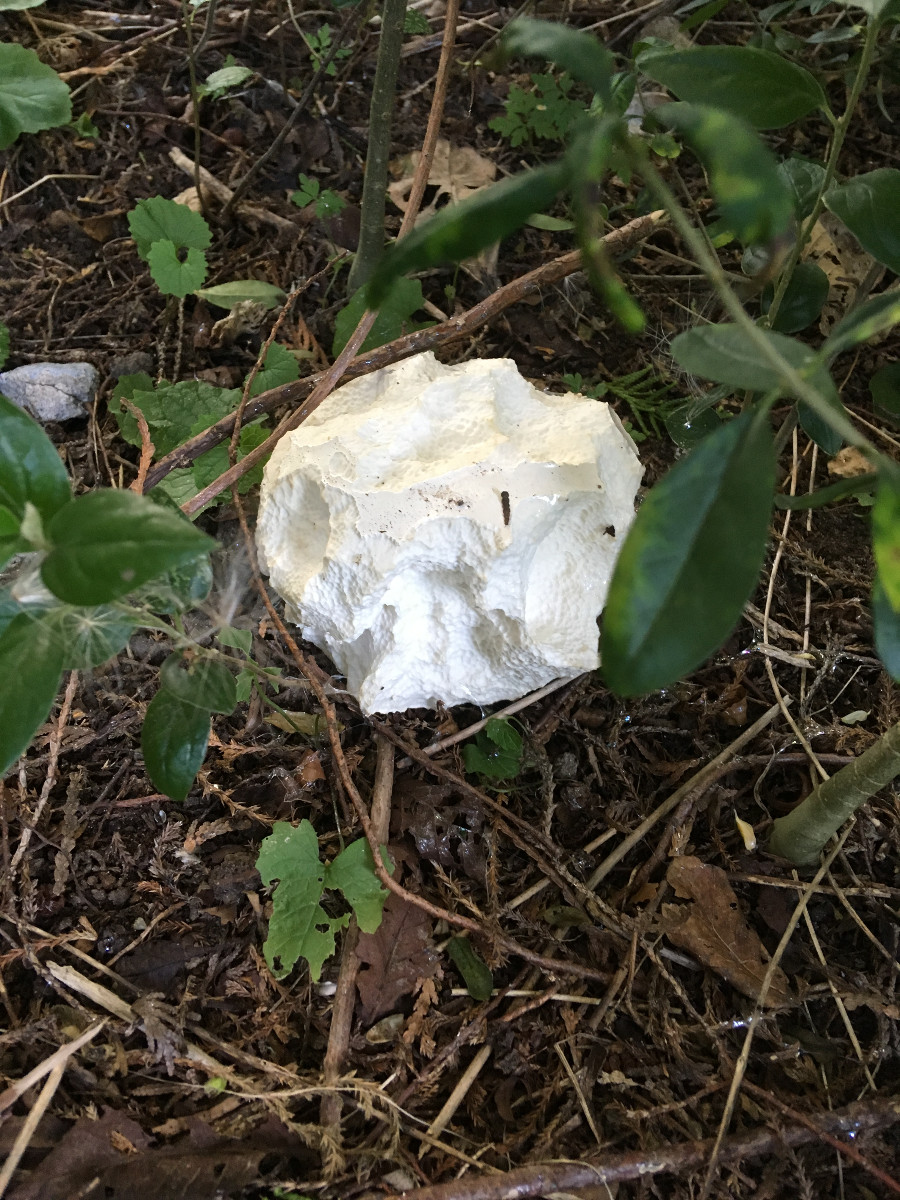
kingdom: Fungi
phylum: Basidiomycota
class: Agaricomycetes
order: Agaricales
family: Lycoperdaceae
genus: Calvatia
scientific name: Calvatia gigantea
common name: kæmpestøvbold
